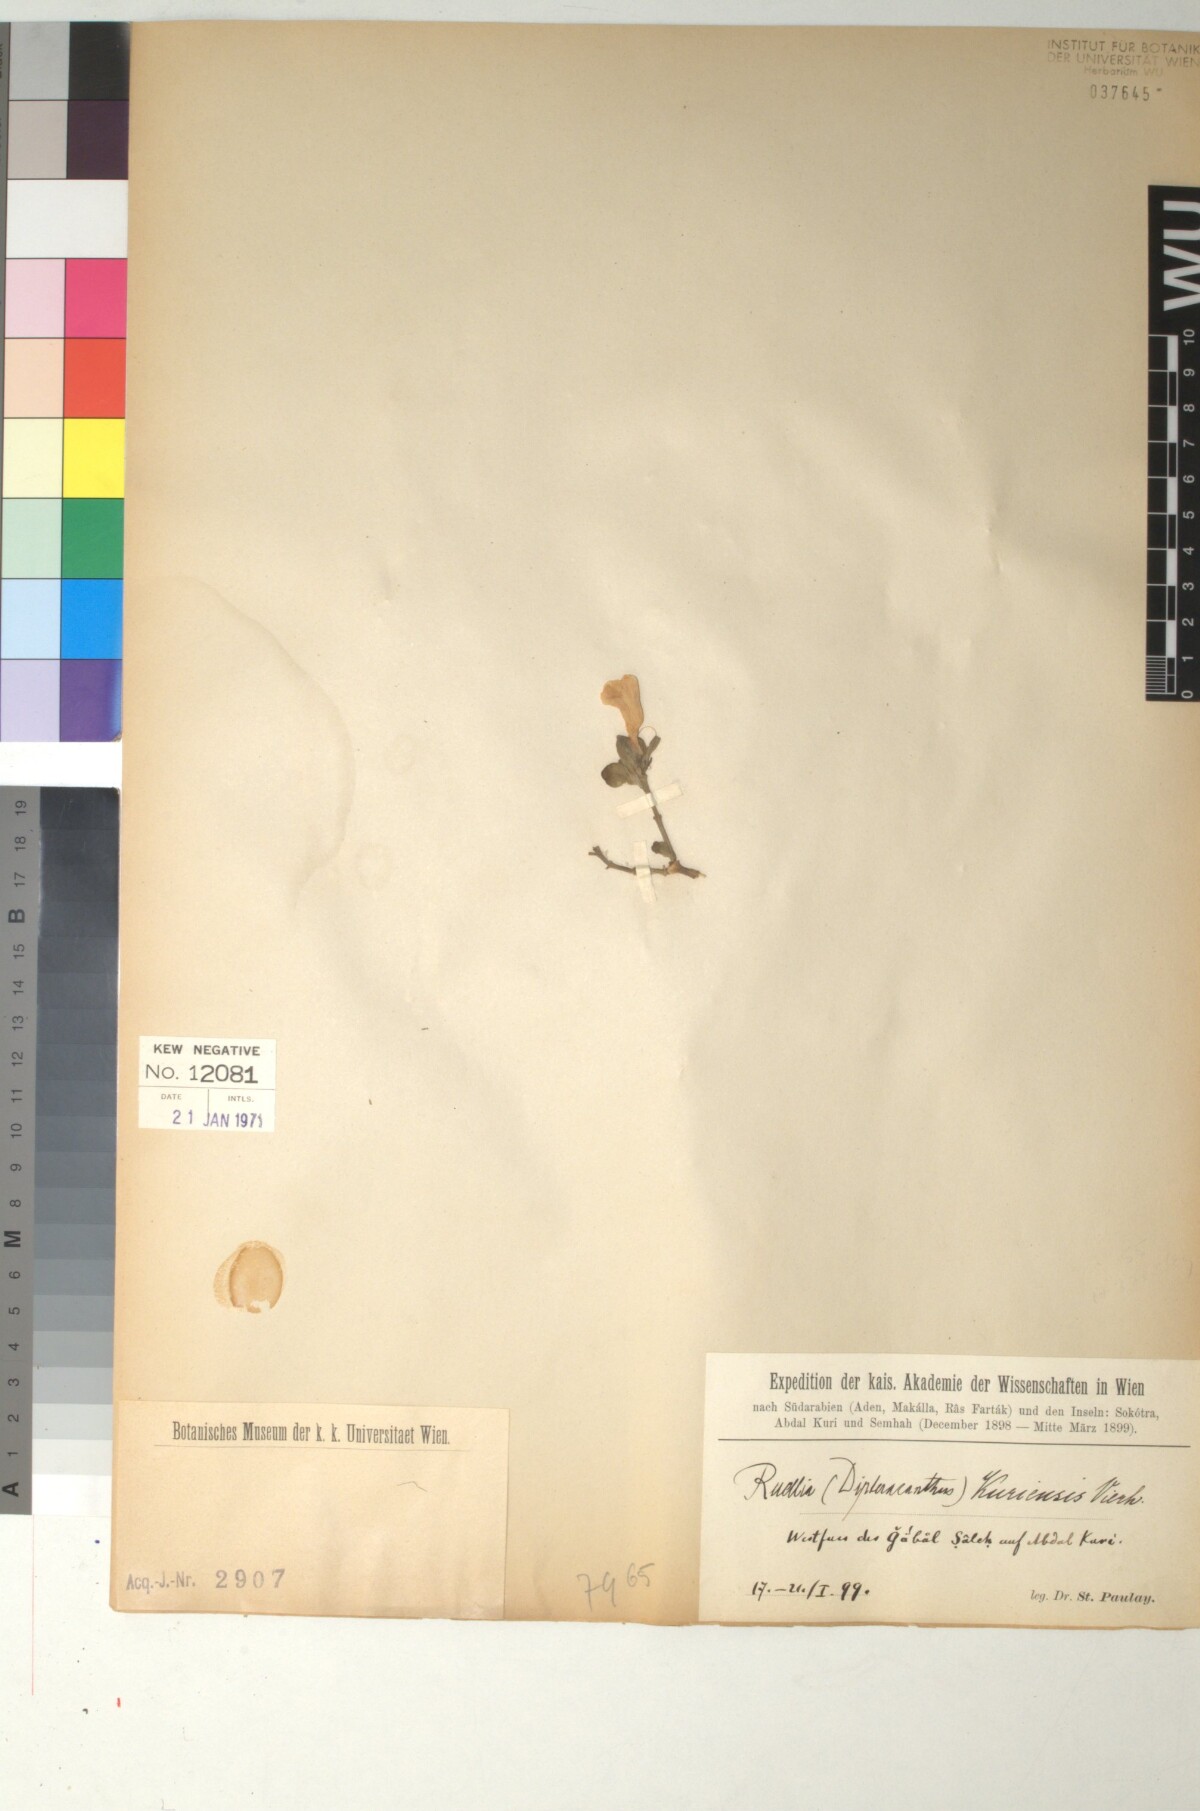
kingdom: Plantae
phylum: Tracheophyta
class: Magnoliopsida
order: Lamiales
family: Acanthaceae
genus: Ruellia
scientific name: Ruellia kuriensis
